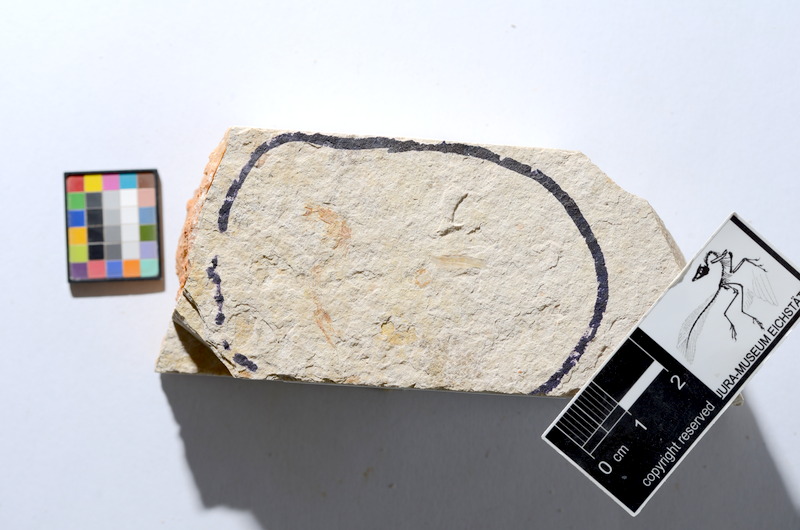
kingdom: Animalia
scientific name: Animalia
